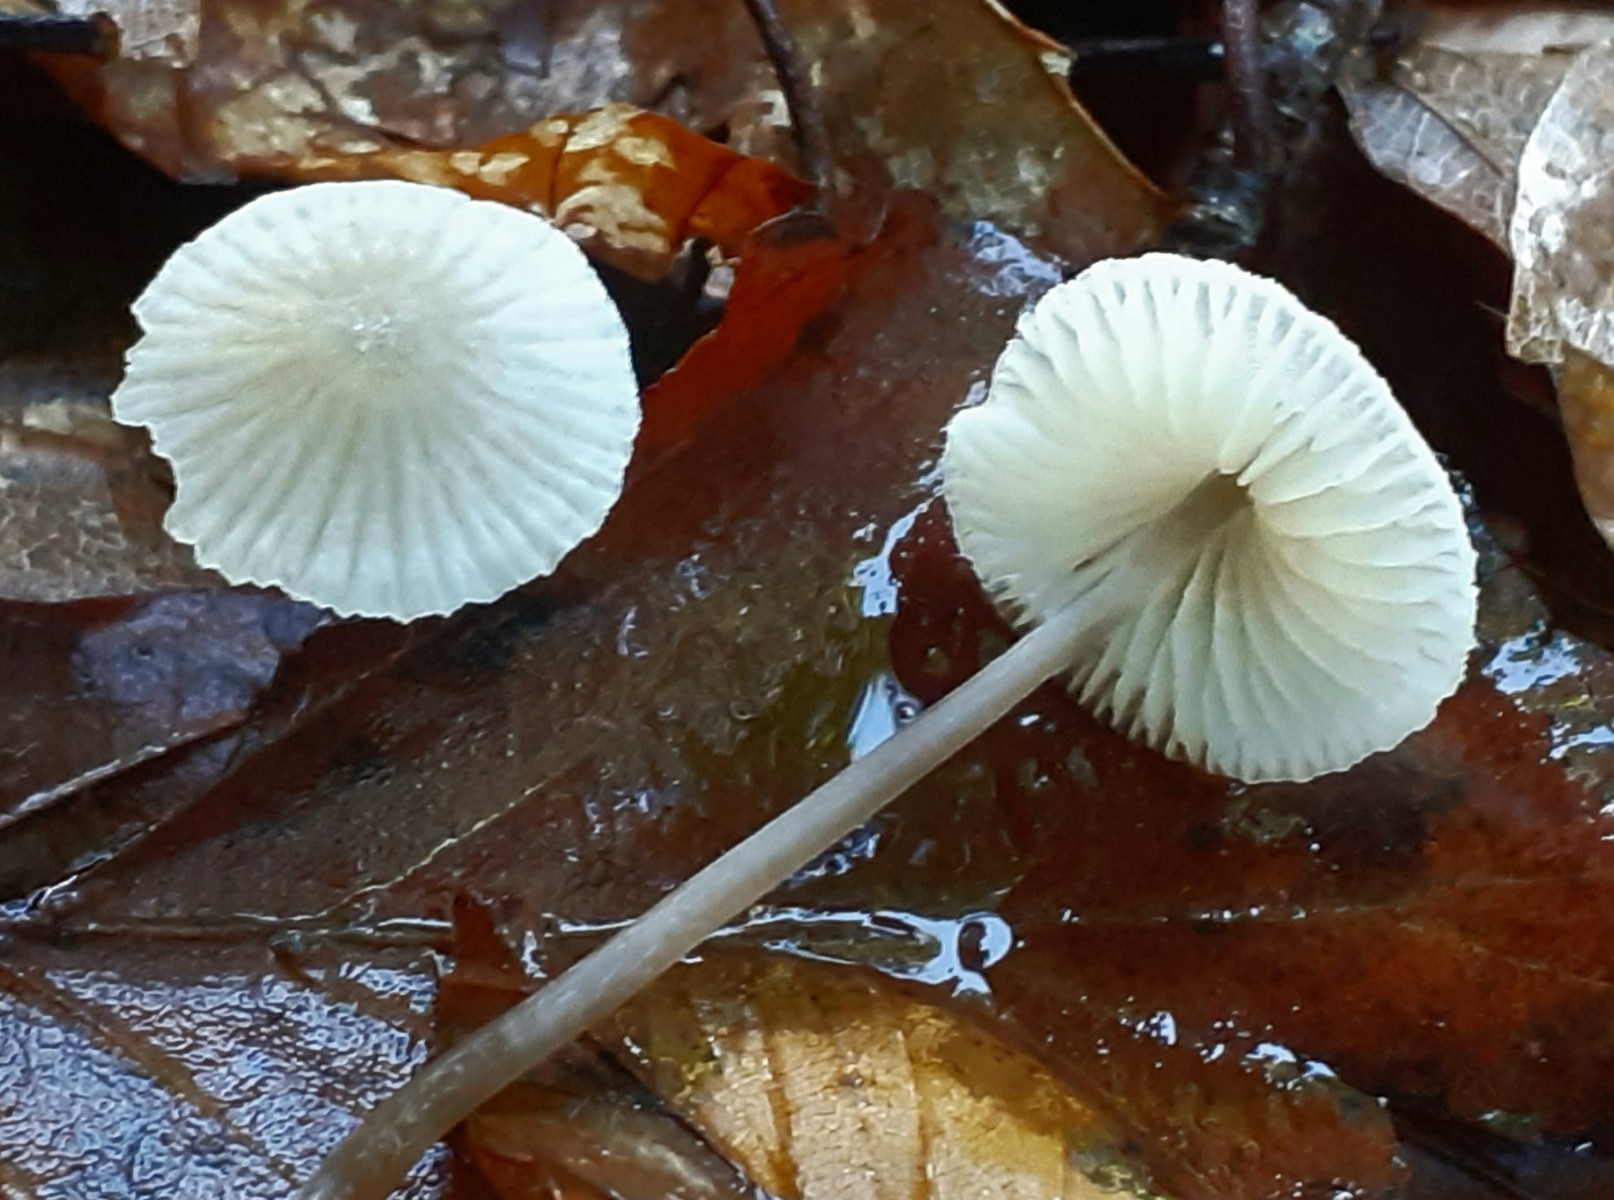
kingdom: Fungi
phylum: Basidiomycota
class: Agaricomycetes
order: Agaricales
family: Mycenaceae
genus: Mycena
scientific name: Mycena flavescens
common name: grågul huesvamp
